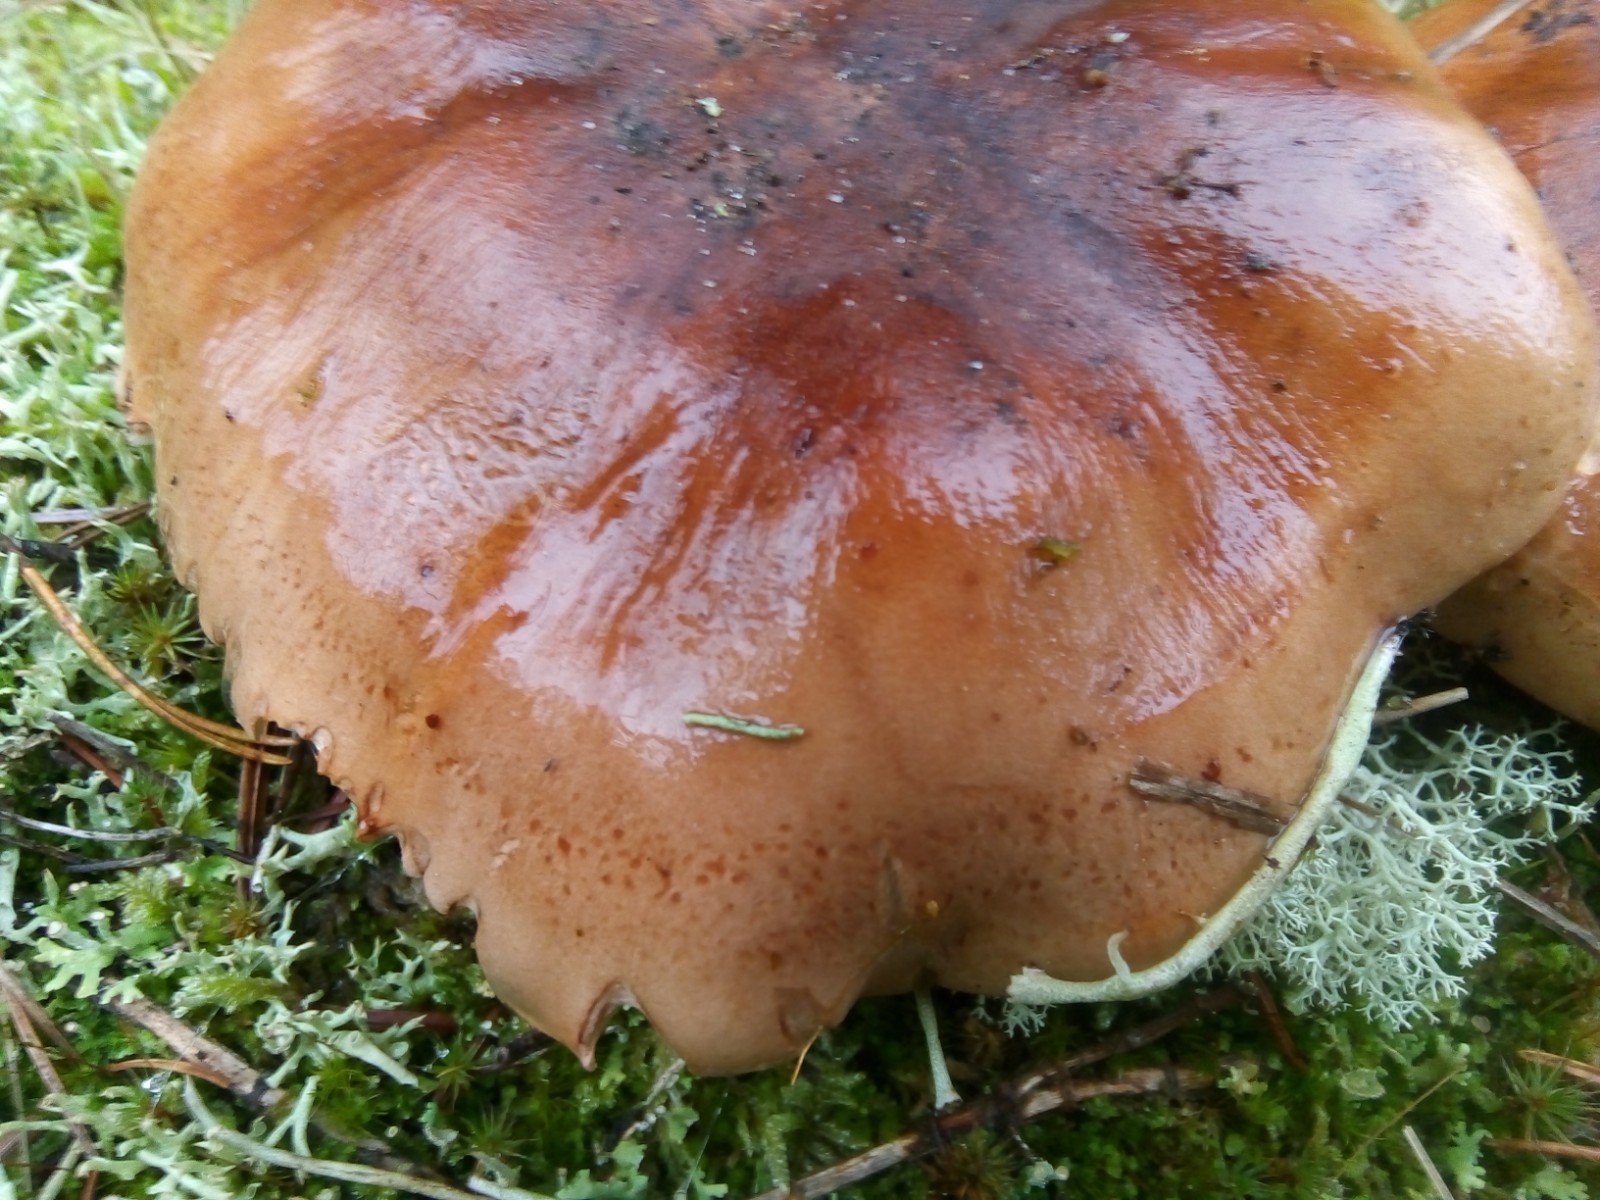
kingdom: Fungi
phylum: Basidiomycota
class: Agaricomycetes
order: Agaricales
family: Tricholomataceae
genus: Tricholoma
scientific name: Tricholoma pessundatum
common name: dråbeplettet ridderhat
